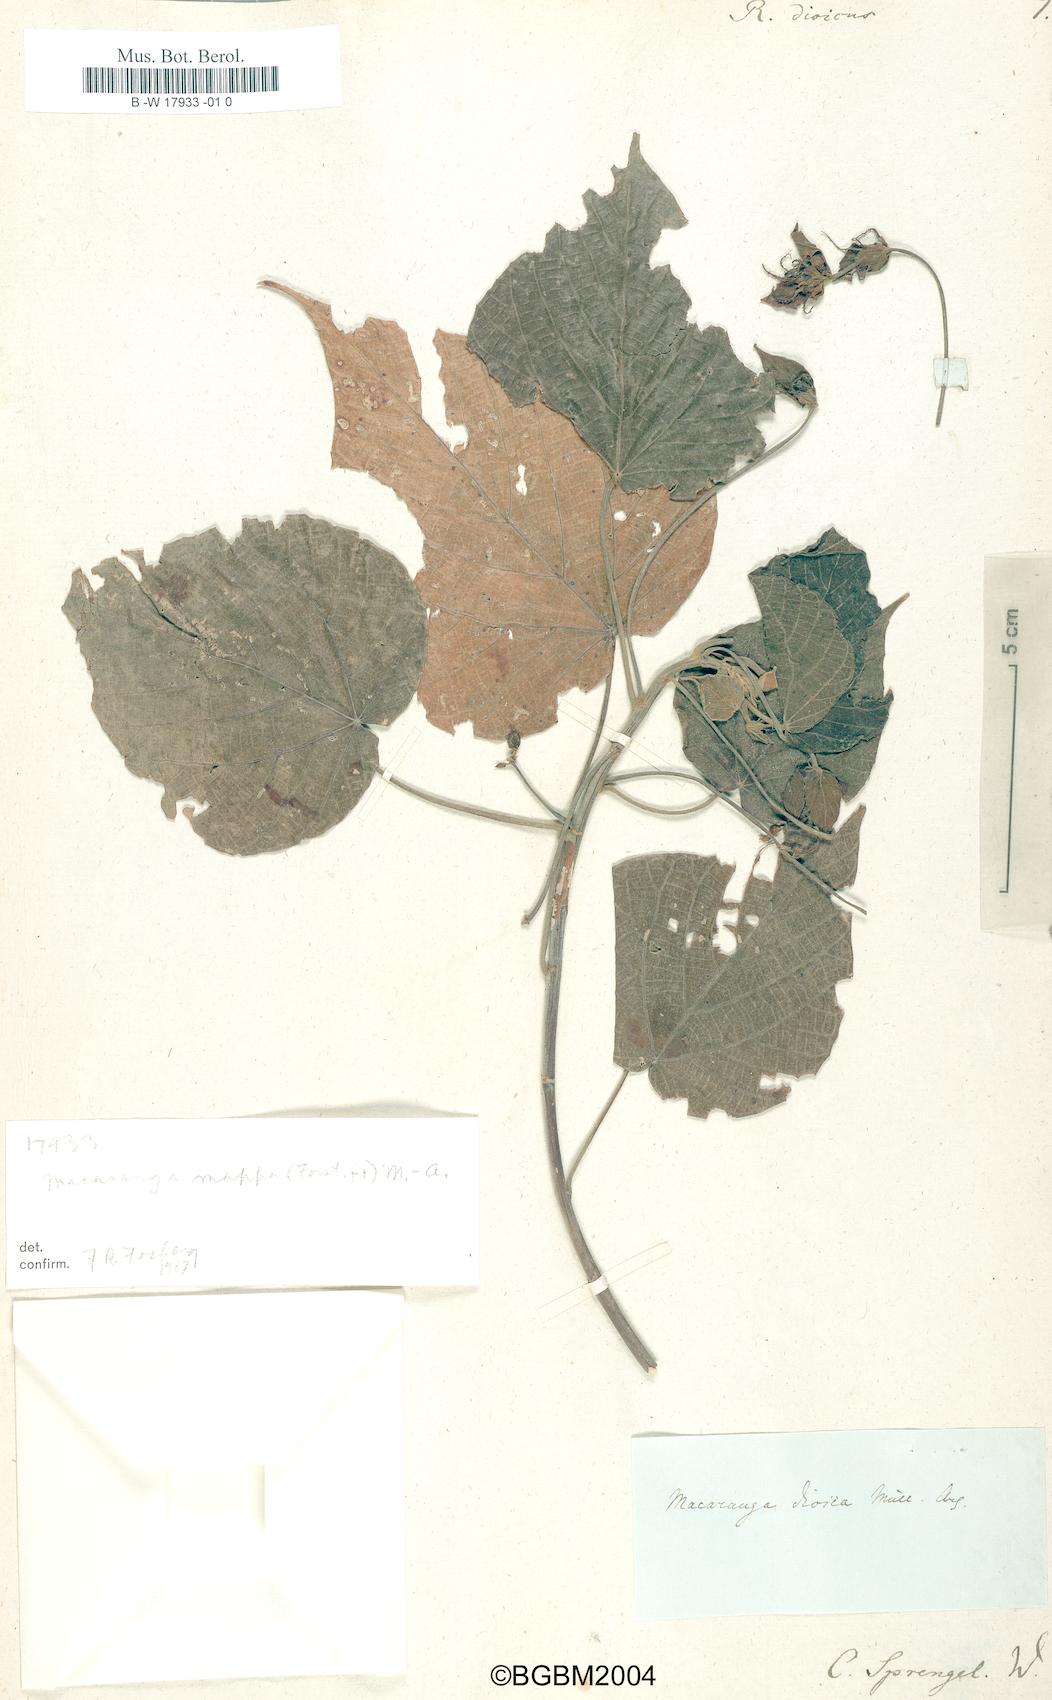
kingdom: Plantae
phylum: Tracheophyta
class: Magnoliopsida
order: Malpighiales
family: Euphorbiaceae
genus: Macaranga
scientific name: Macaranga dioica
